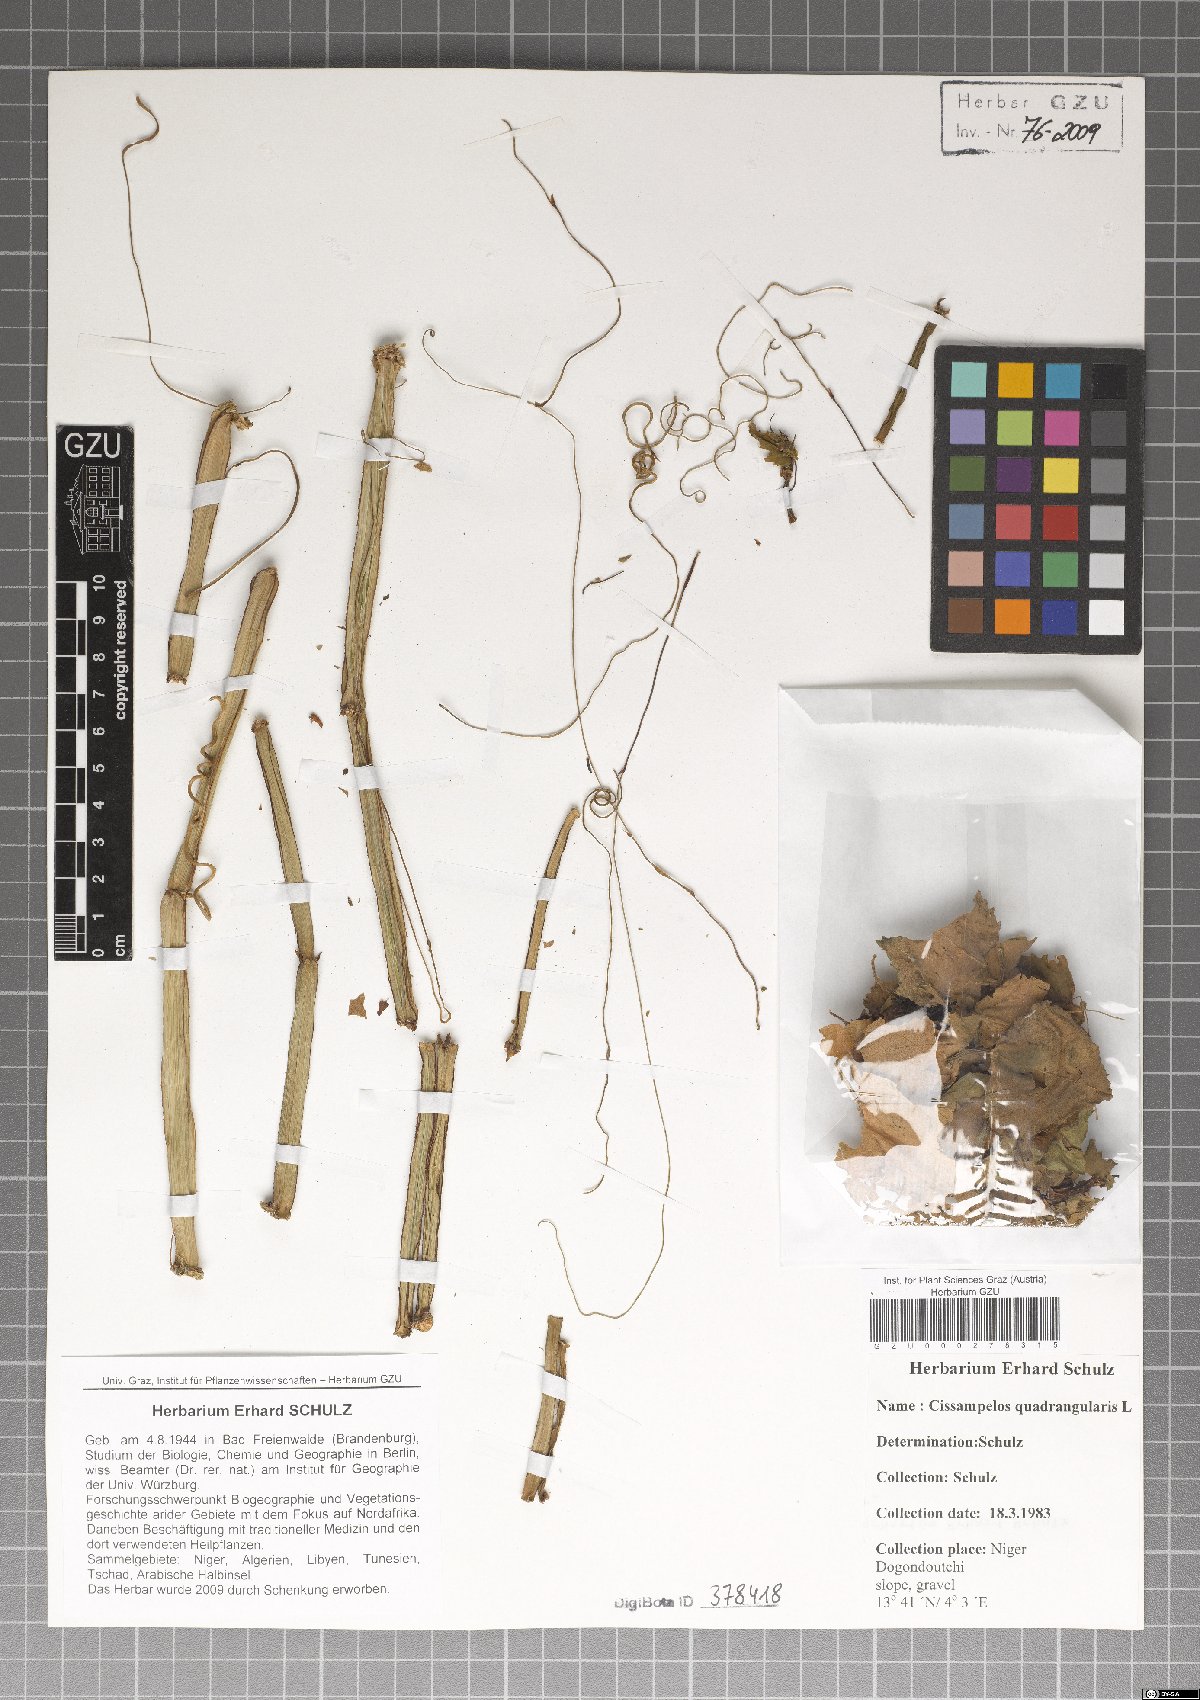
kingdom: Plantae
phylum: Tracheophyta
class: Magnoliopsida
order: Ranunculales
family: Menispermaceae
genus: Cissampelos
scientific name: Cissampelos
